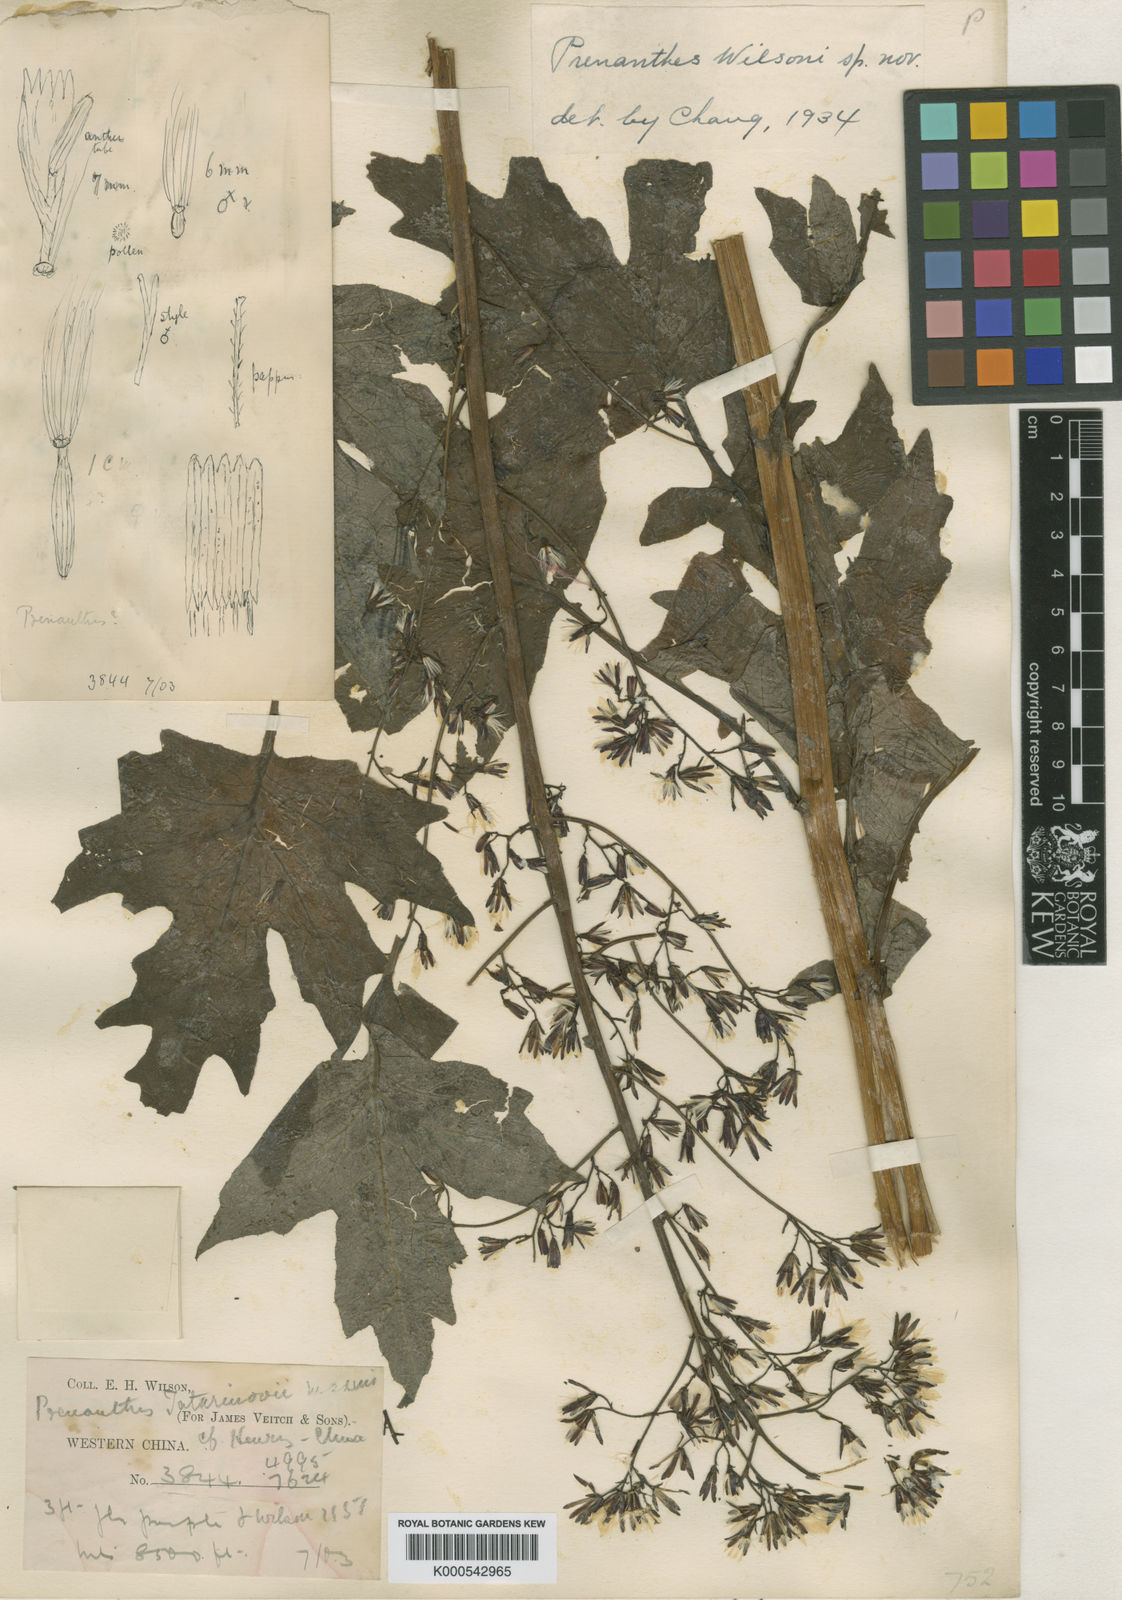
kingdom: Plantae
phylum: Tracheophyta
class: Magnoliopsida
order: Asterales
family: Asteraceae
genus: Paraprenanthes
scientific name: Paraprenanthes wilsonii
